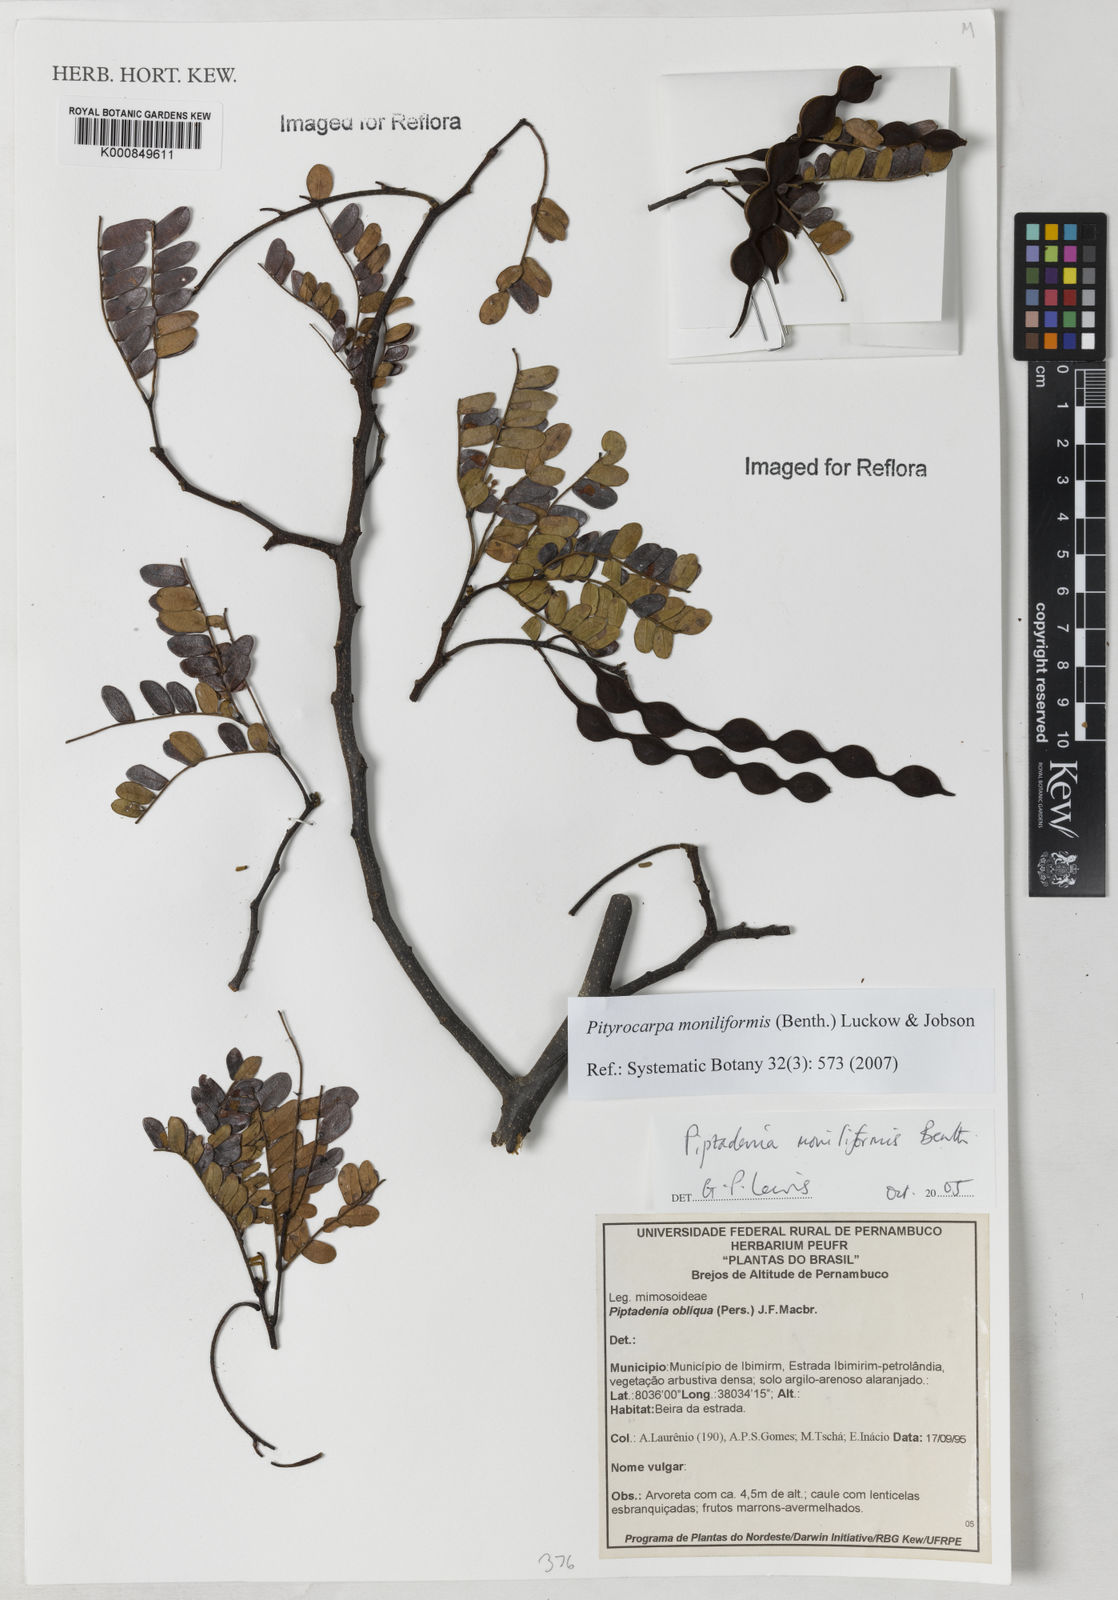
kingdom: Plantae
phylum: Tracheophyta
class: Magnoliopsida
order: Fabales
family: Fabaceae
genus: Pityrocarpa
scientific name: Pityrocarpa moniliformis
